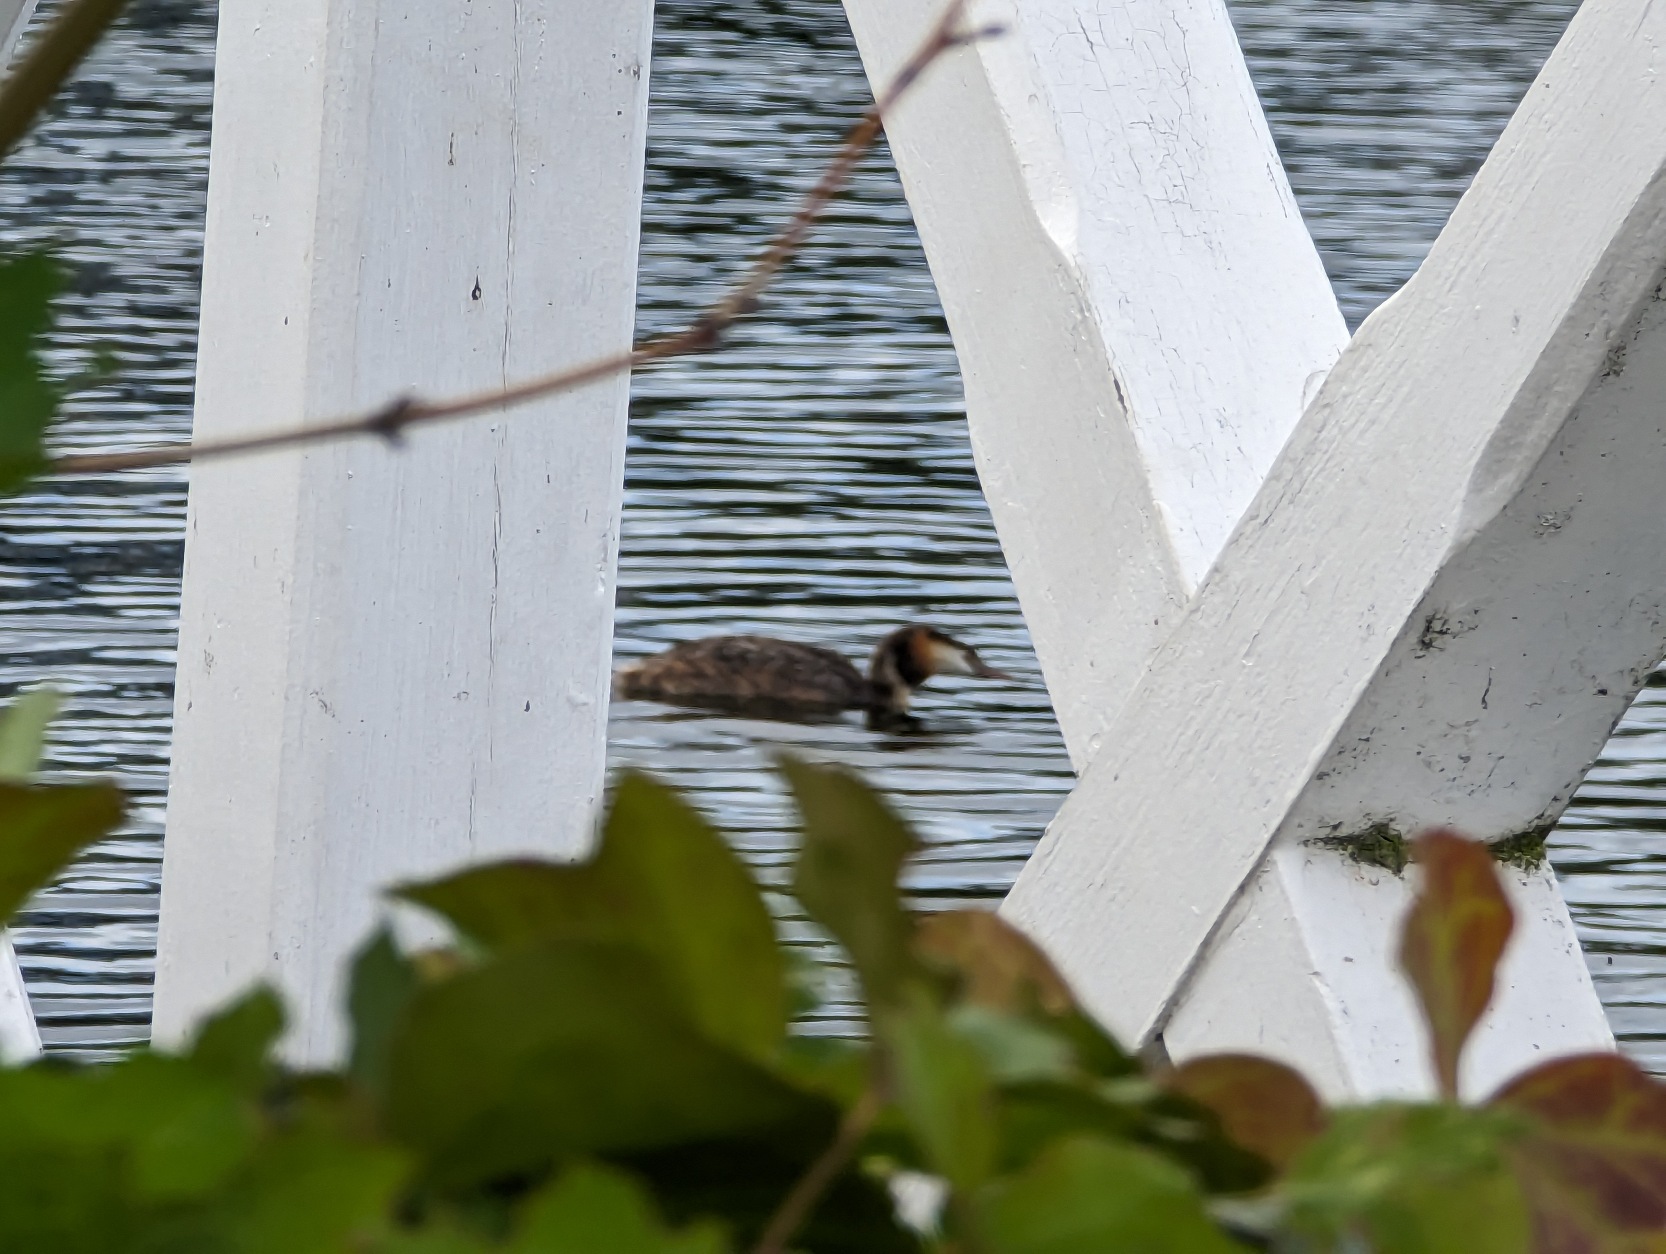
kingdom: Animalia
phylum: Chordata
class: Aves
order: Podicipediformes
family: Podicipedidae
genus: Podiceps
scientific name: Podiceps cristatus
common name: Toppet lappedykker
